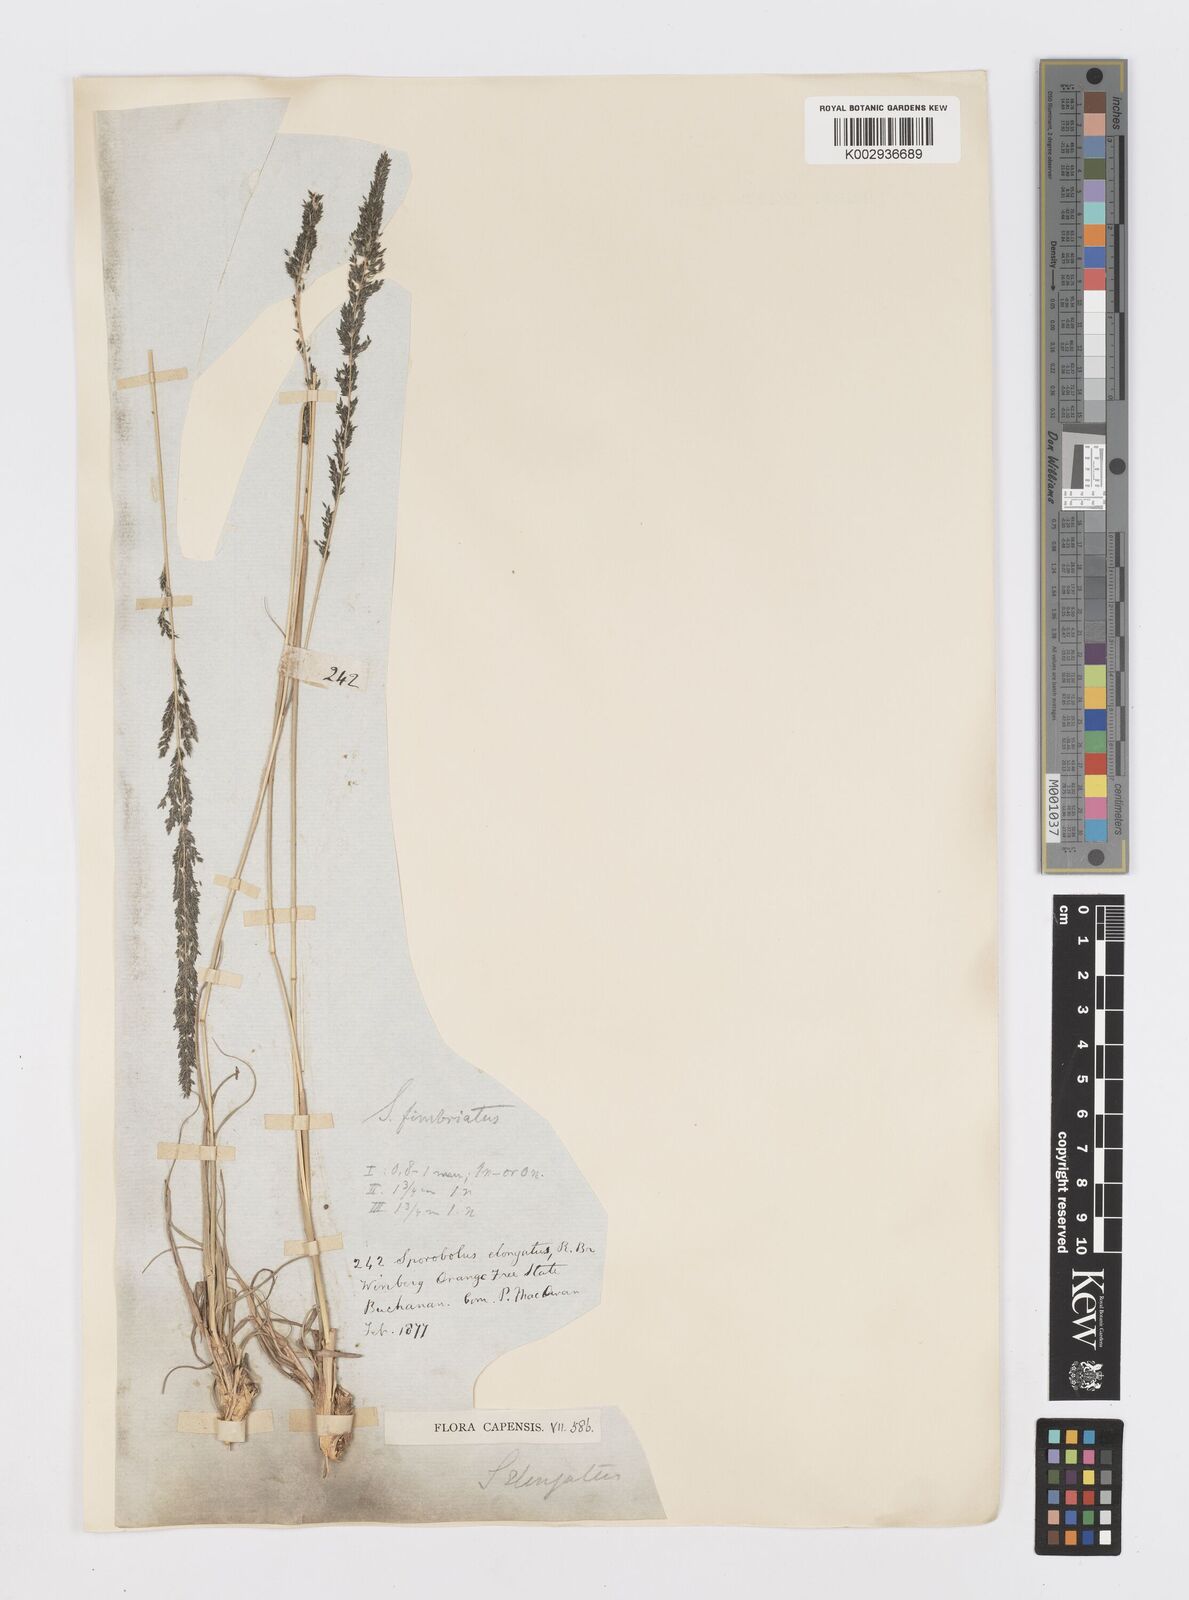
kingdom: Plantae
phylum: Tracheophyta
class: Liliopsida
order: Poales
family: Poaceae
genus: Sporobolus
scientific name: Sporobolus fimbriatus
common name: Fringed dropseed
